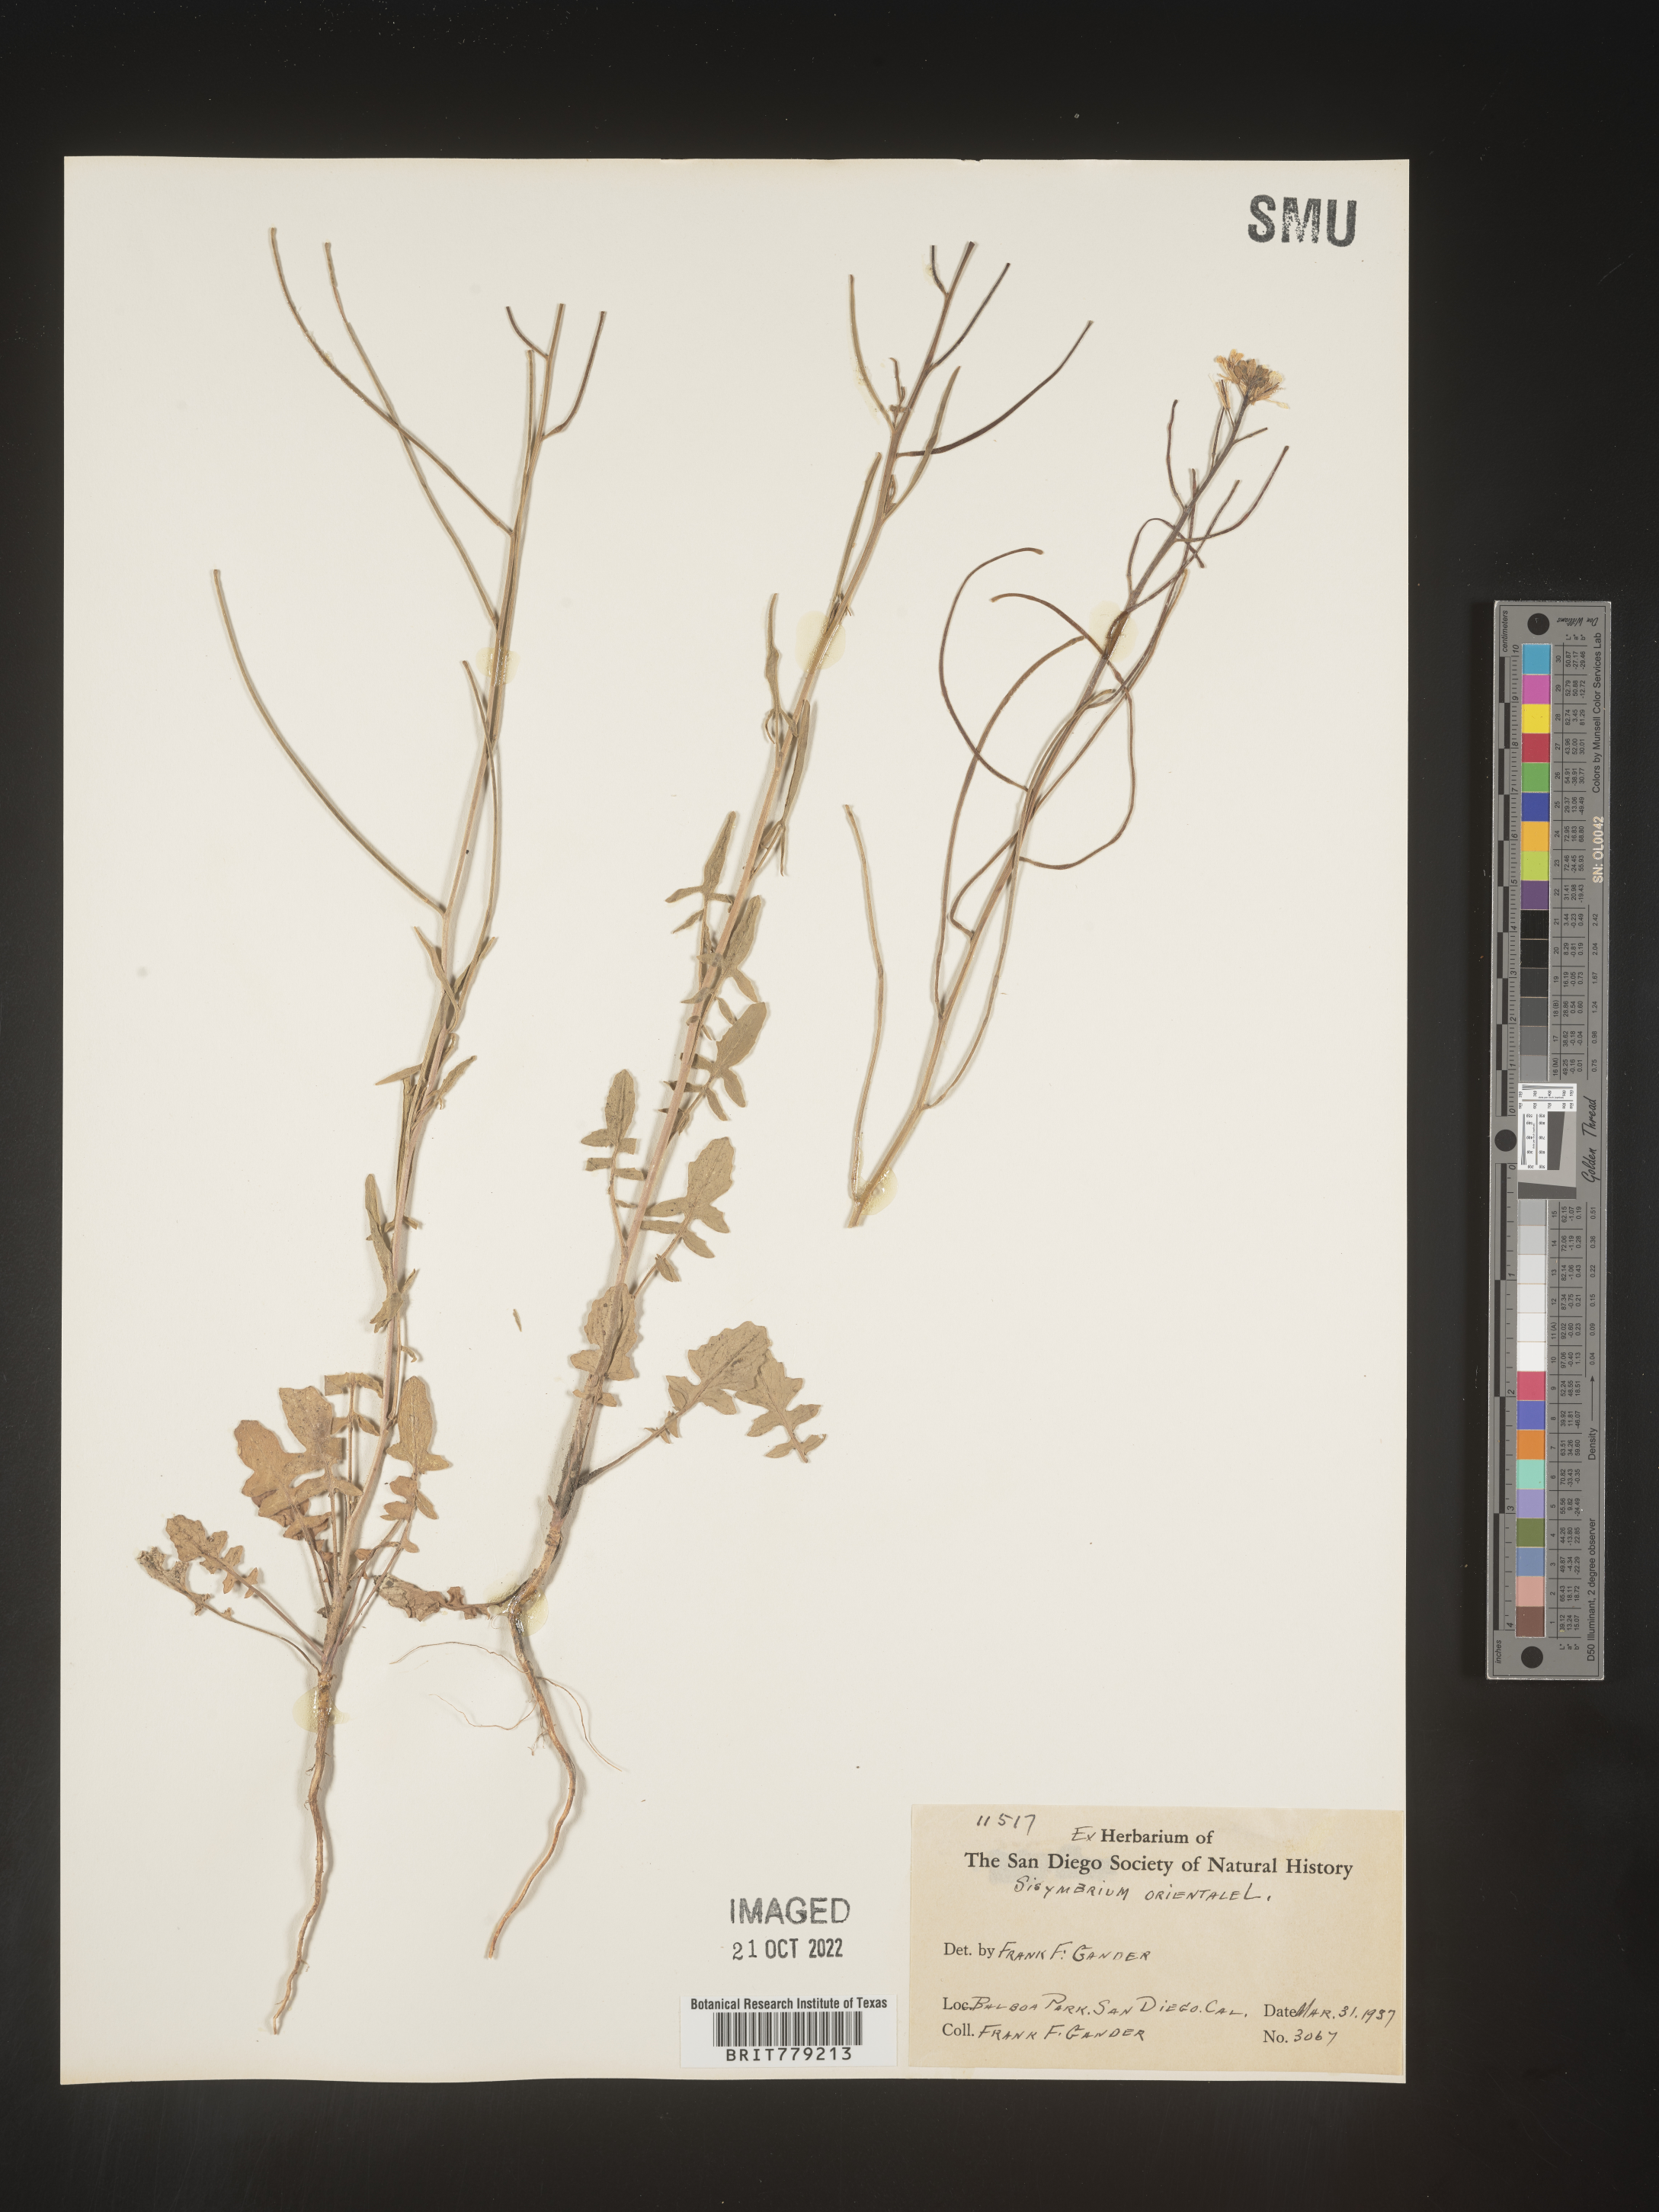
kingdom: Plantae
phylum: Tracheophyta
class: Magnoliopsida
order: Brassicales
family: Brassicaceae
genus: Sisymbrium
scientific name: Sisymbrium orientale
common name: Eastern rocket
